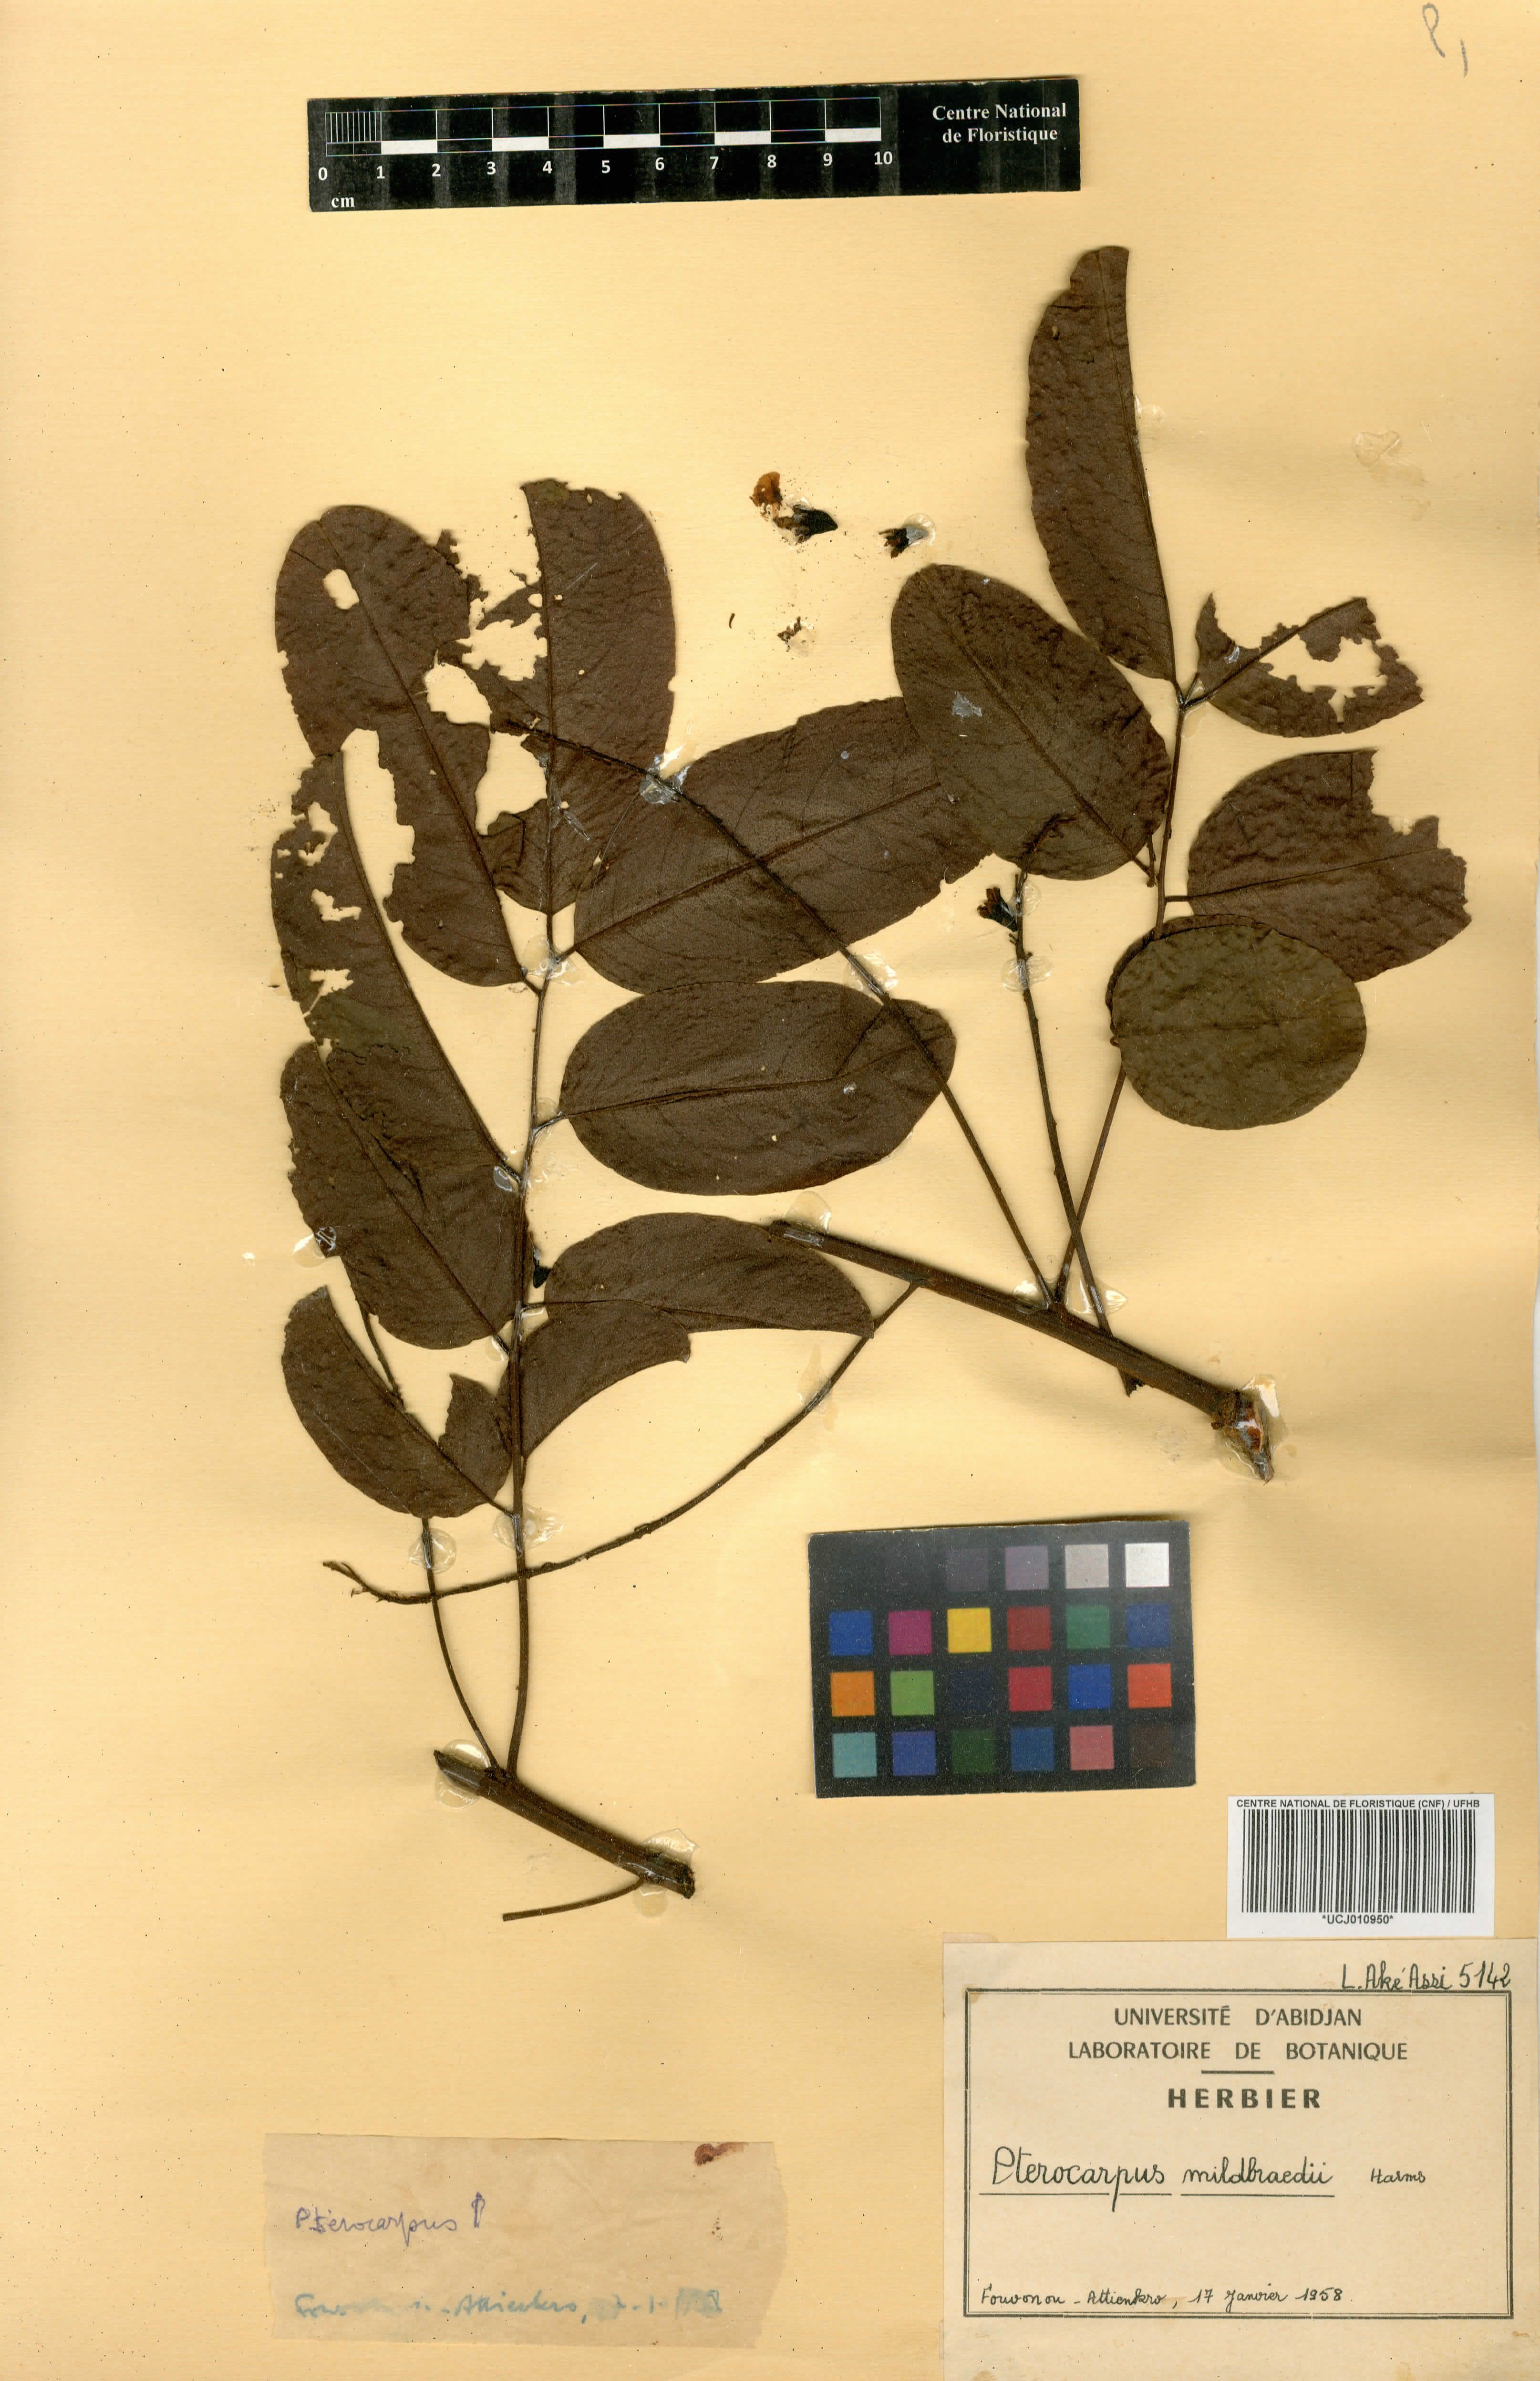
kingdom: Plantae
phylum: Tracheophyta
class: Magnoliopsida
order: Fabales
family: Fabaceae
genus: Pterocarpus
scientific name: Pterocarpus mildbraedii
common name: White padouk
